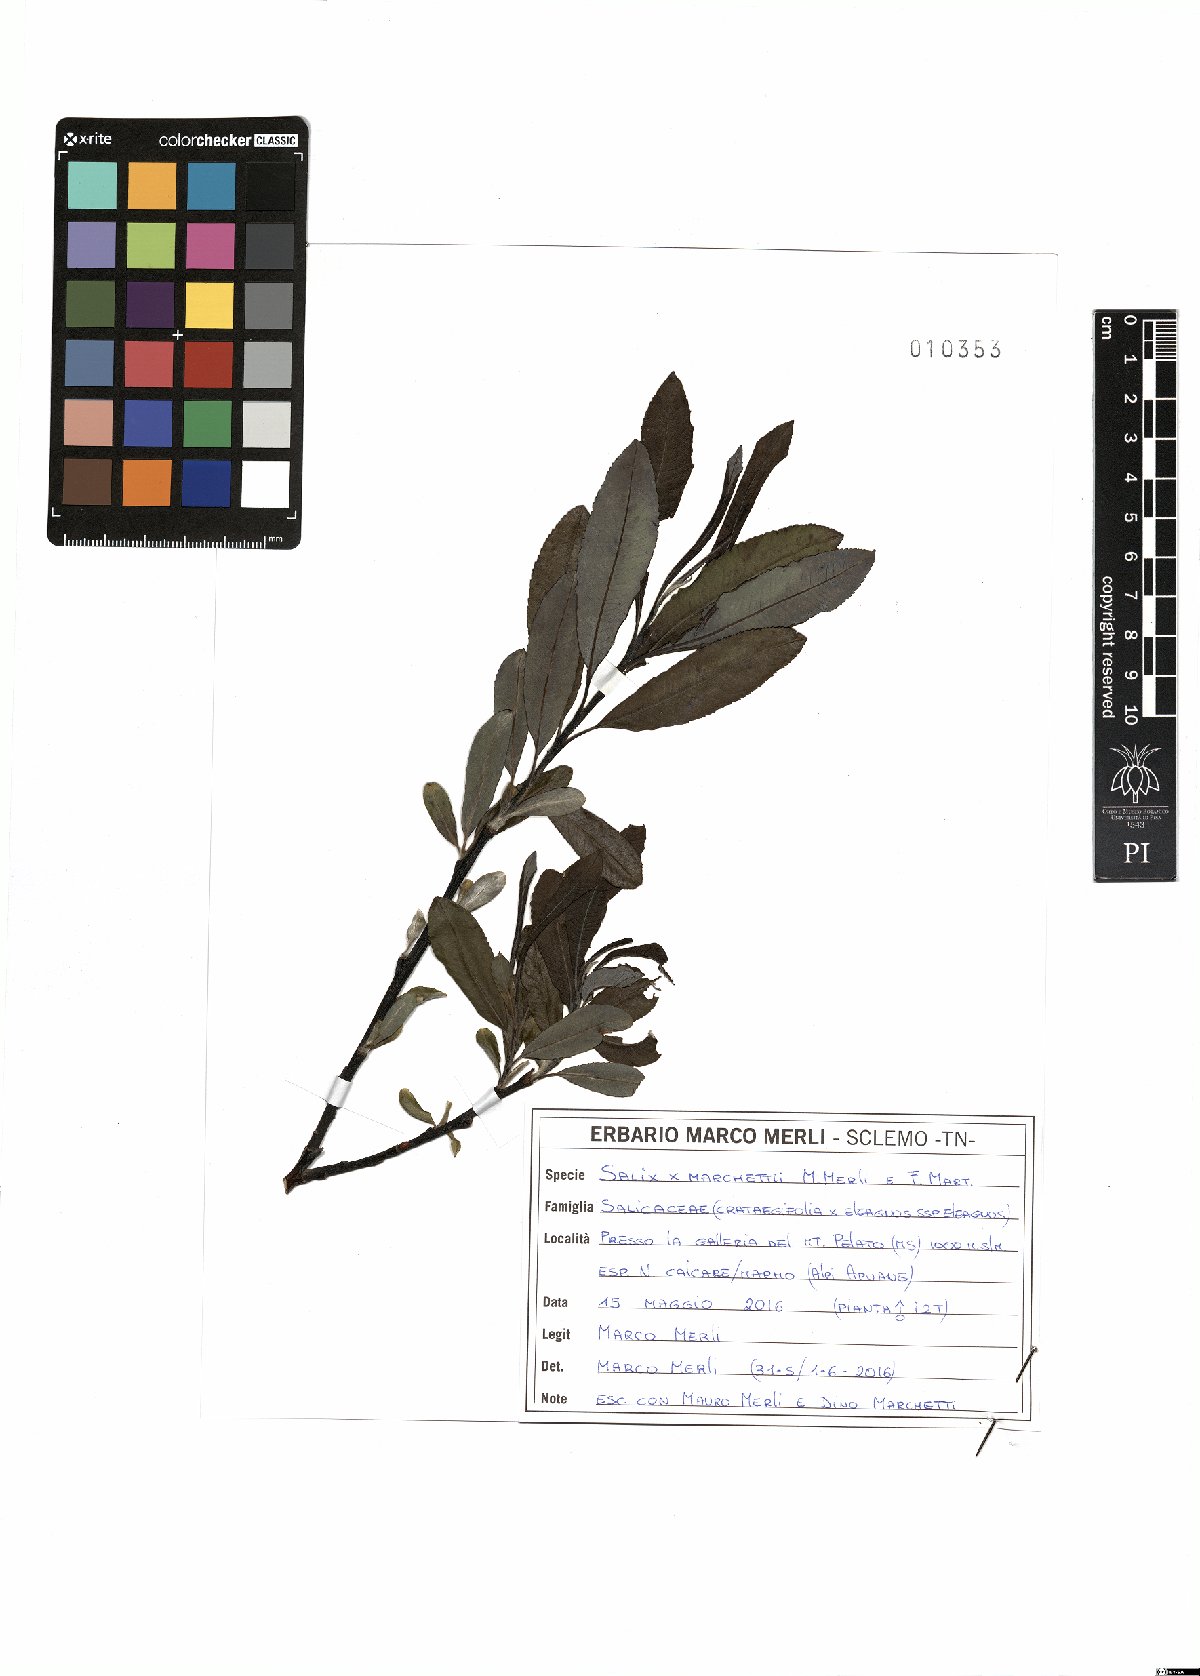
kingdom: Plantae
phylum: Tracheophyta
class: Magnoliopsida
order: Malpighiales
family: Salicaceae
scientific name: Salicaceae
